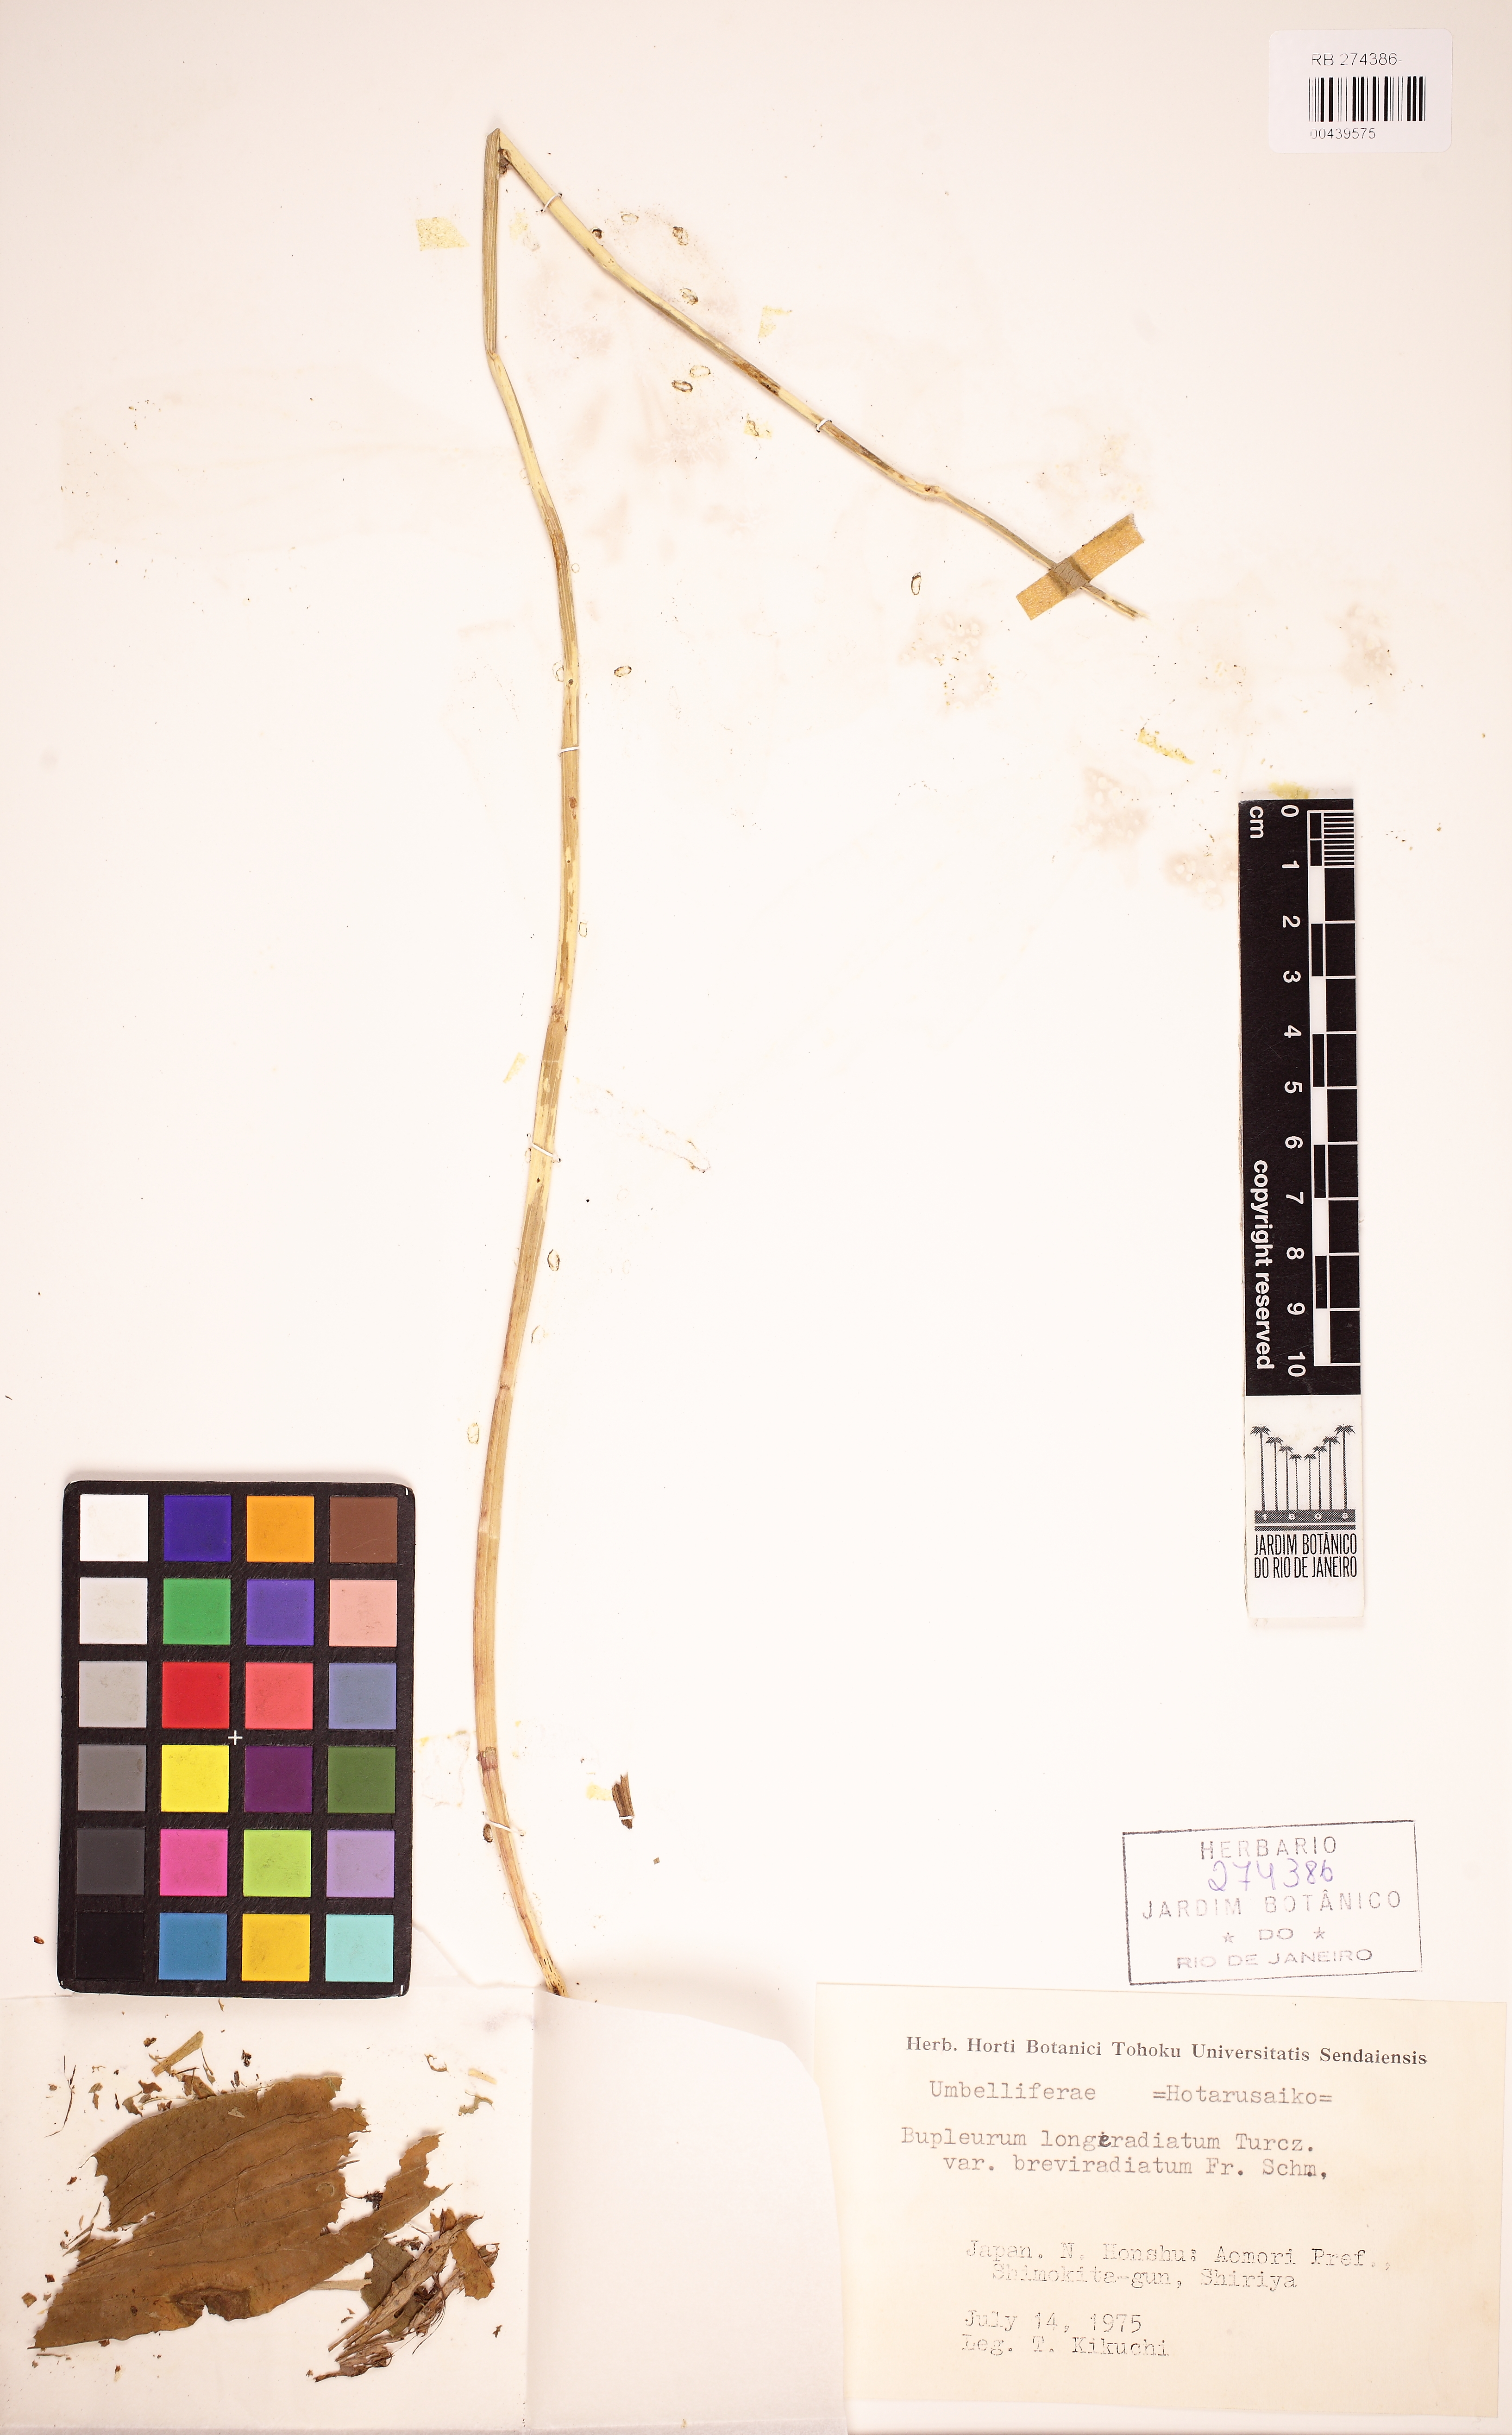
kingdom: Plantae
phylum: Tracheophyta
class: Magnoliopsida
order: Apiales
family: Apiaceae
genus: Bupleurum
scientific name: Bupleurum sachalinense
